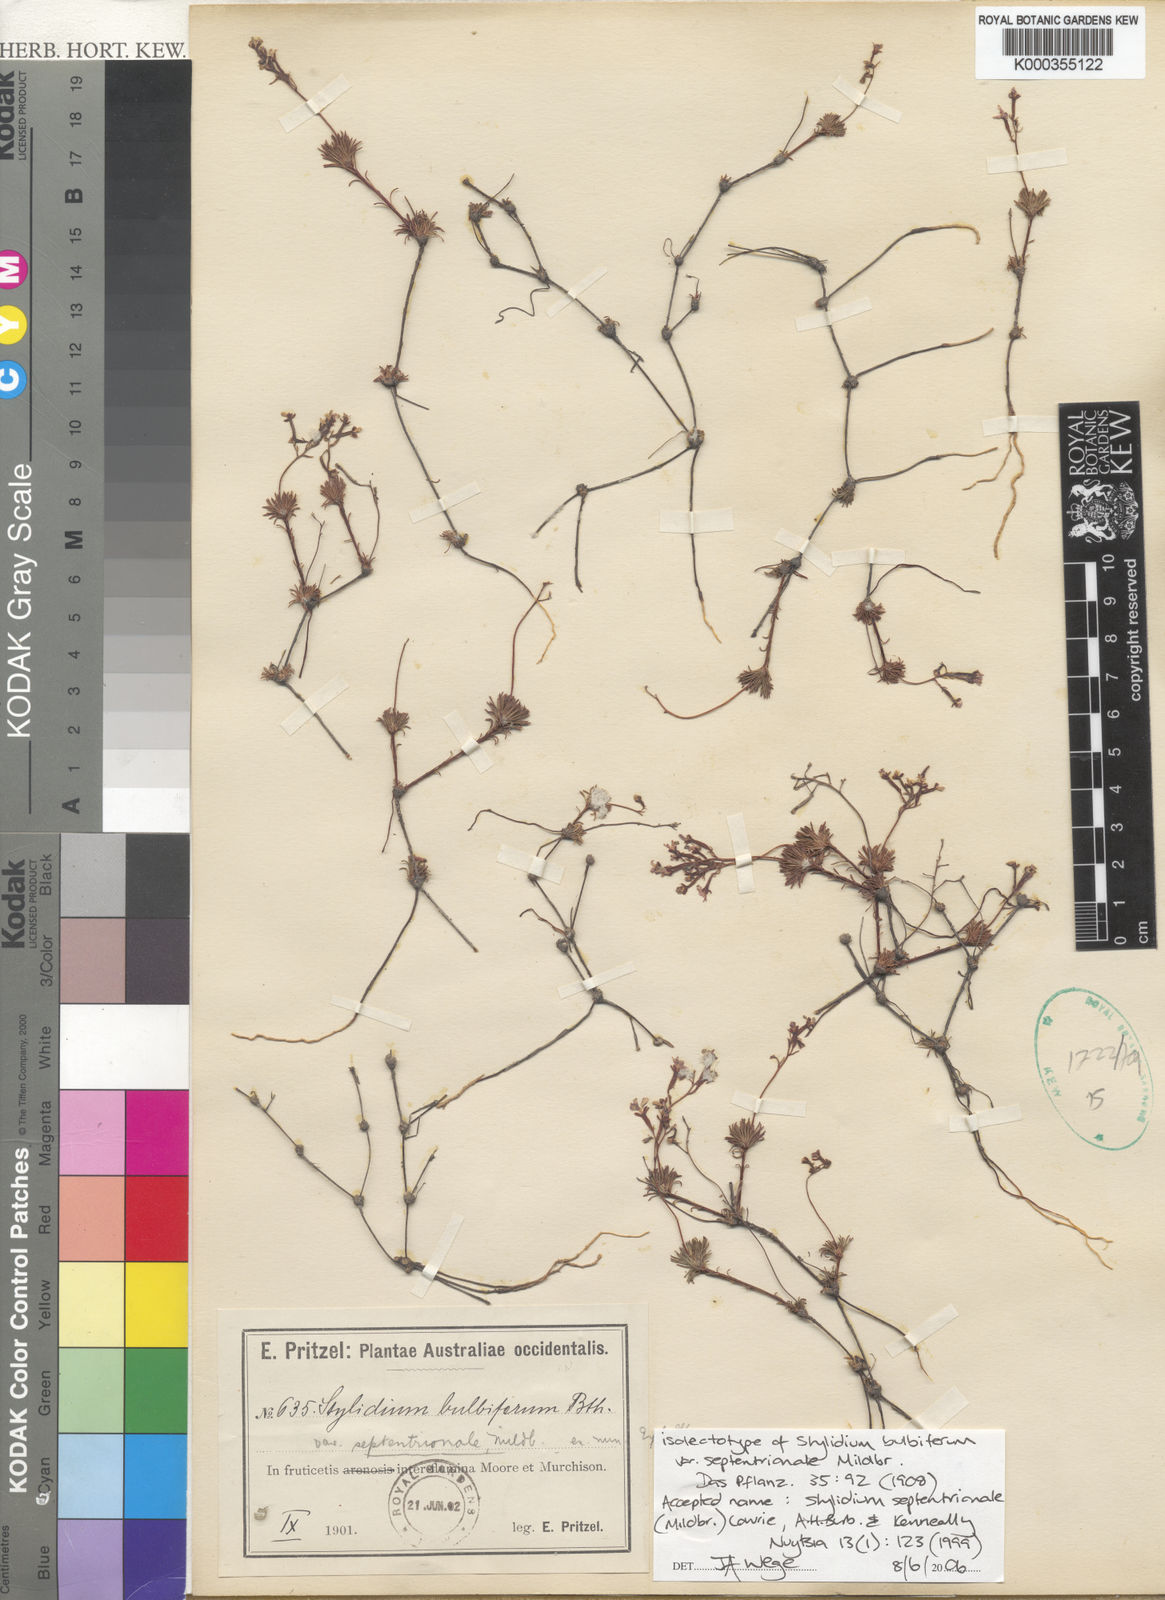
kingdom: Plantae
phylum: Tracheophyta
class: Magnoliopsida
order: Asterales
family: Stylidiaceae
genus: Stylidium
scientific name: Stylidium
